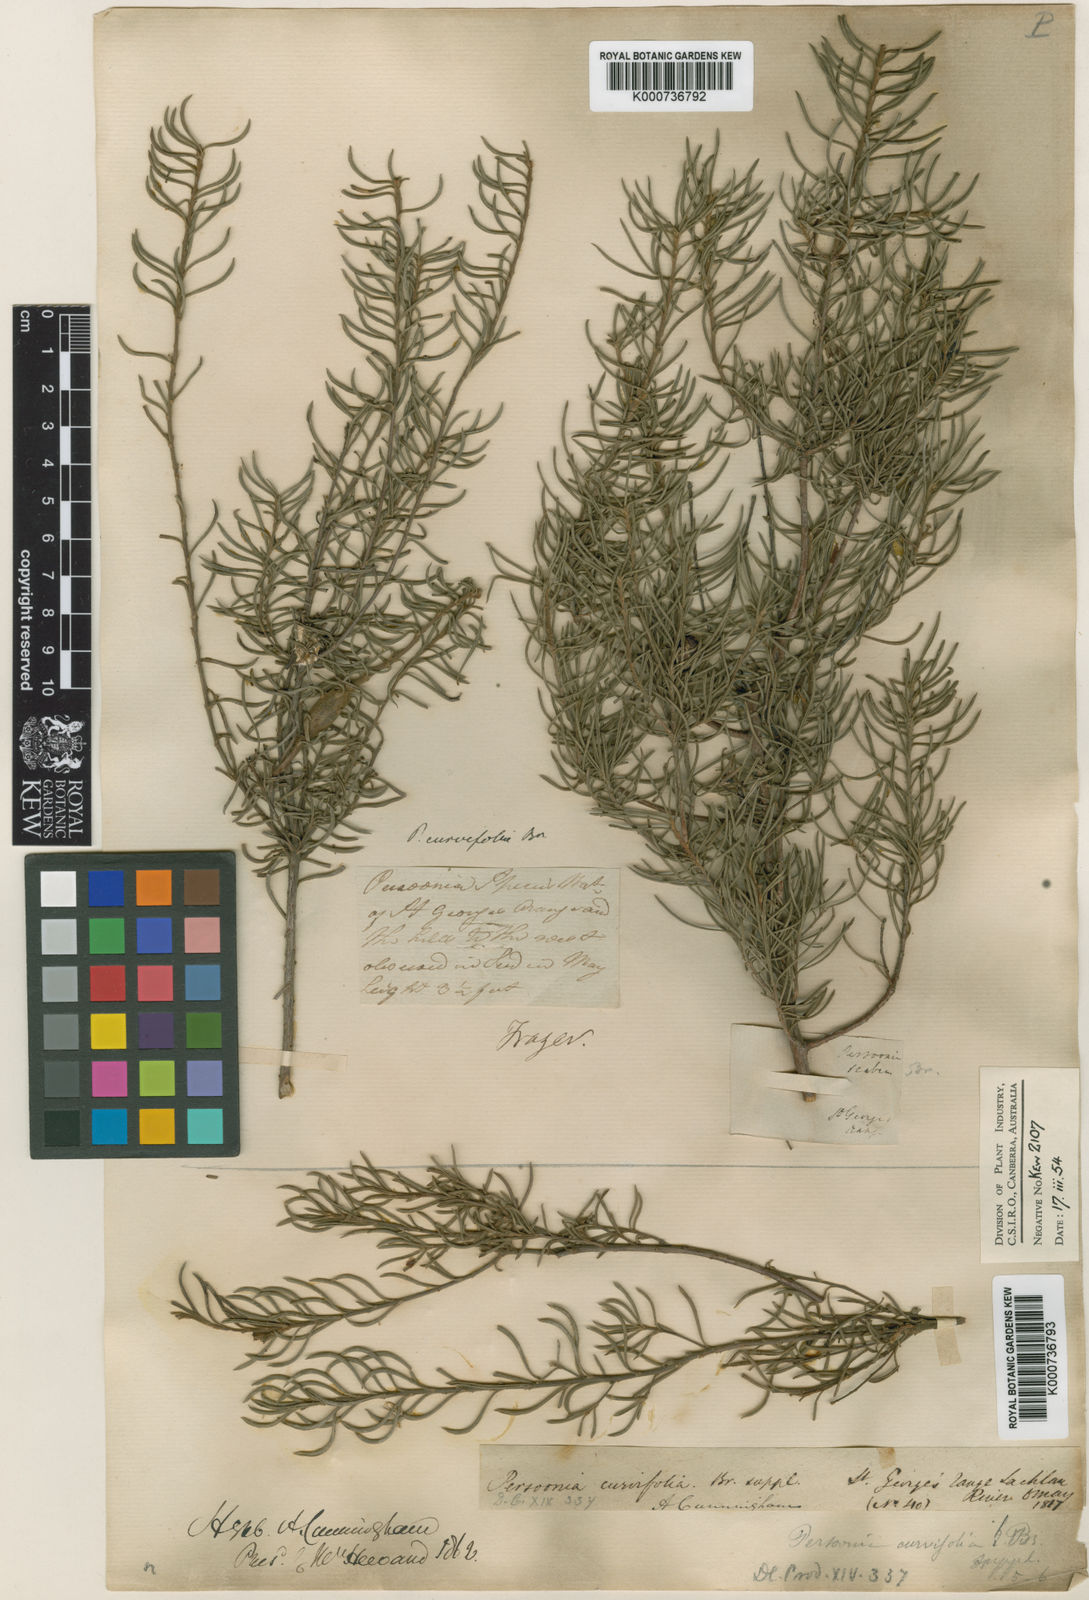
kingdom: Plantae
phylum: Tracheophyta
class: Magnoliopsida
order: Proteales
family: Proteaceae
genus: Persoonia
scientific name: Persoonia curvifolia
